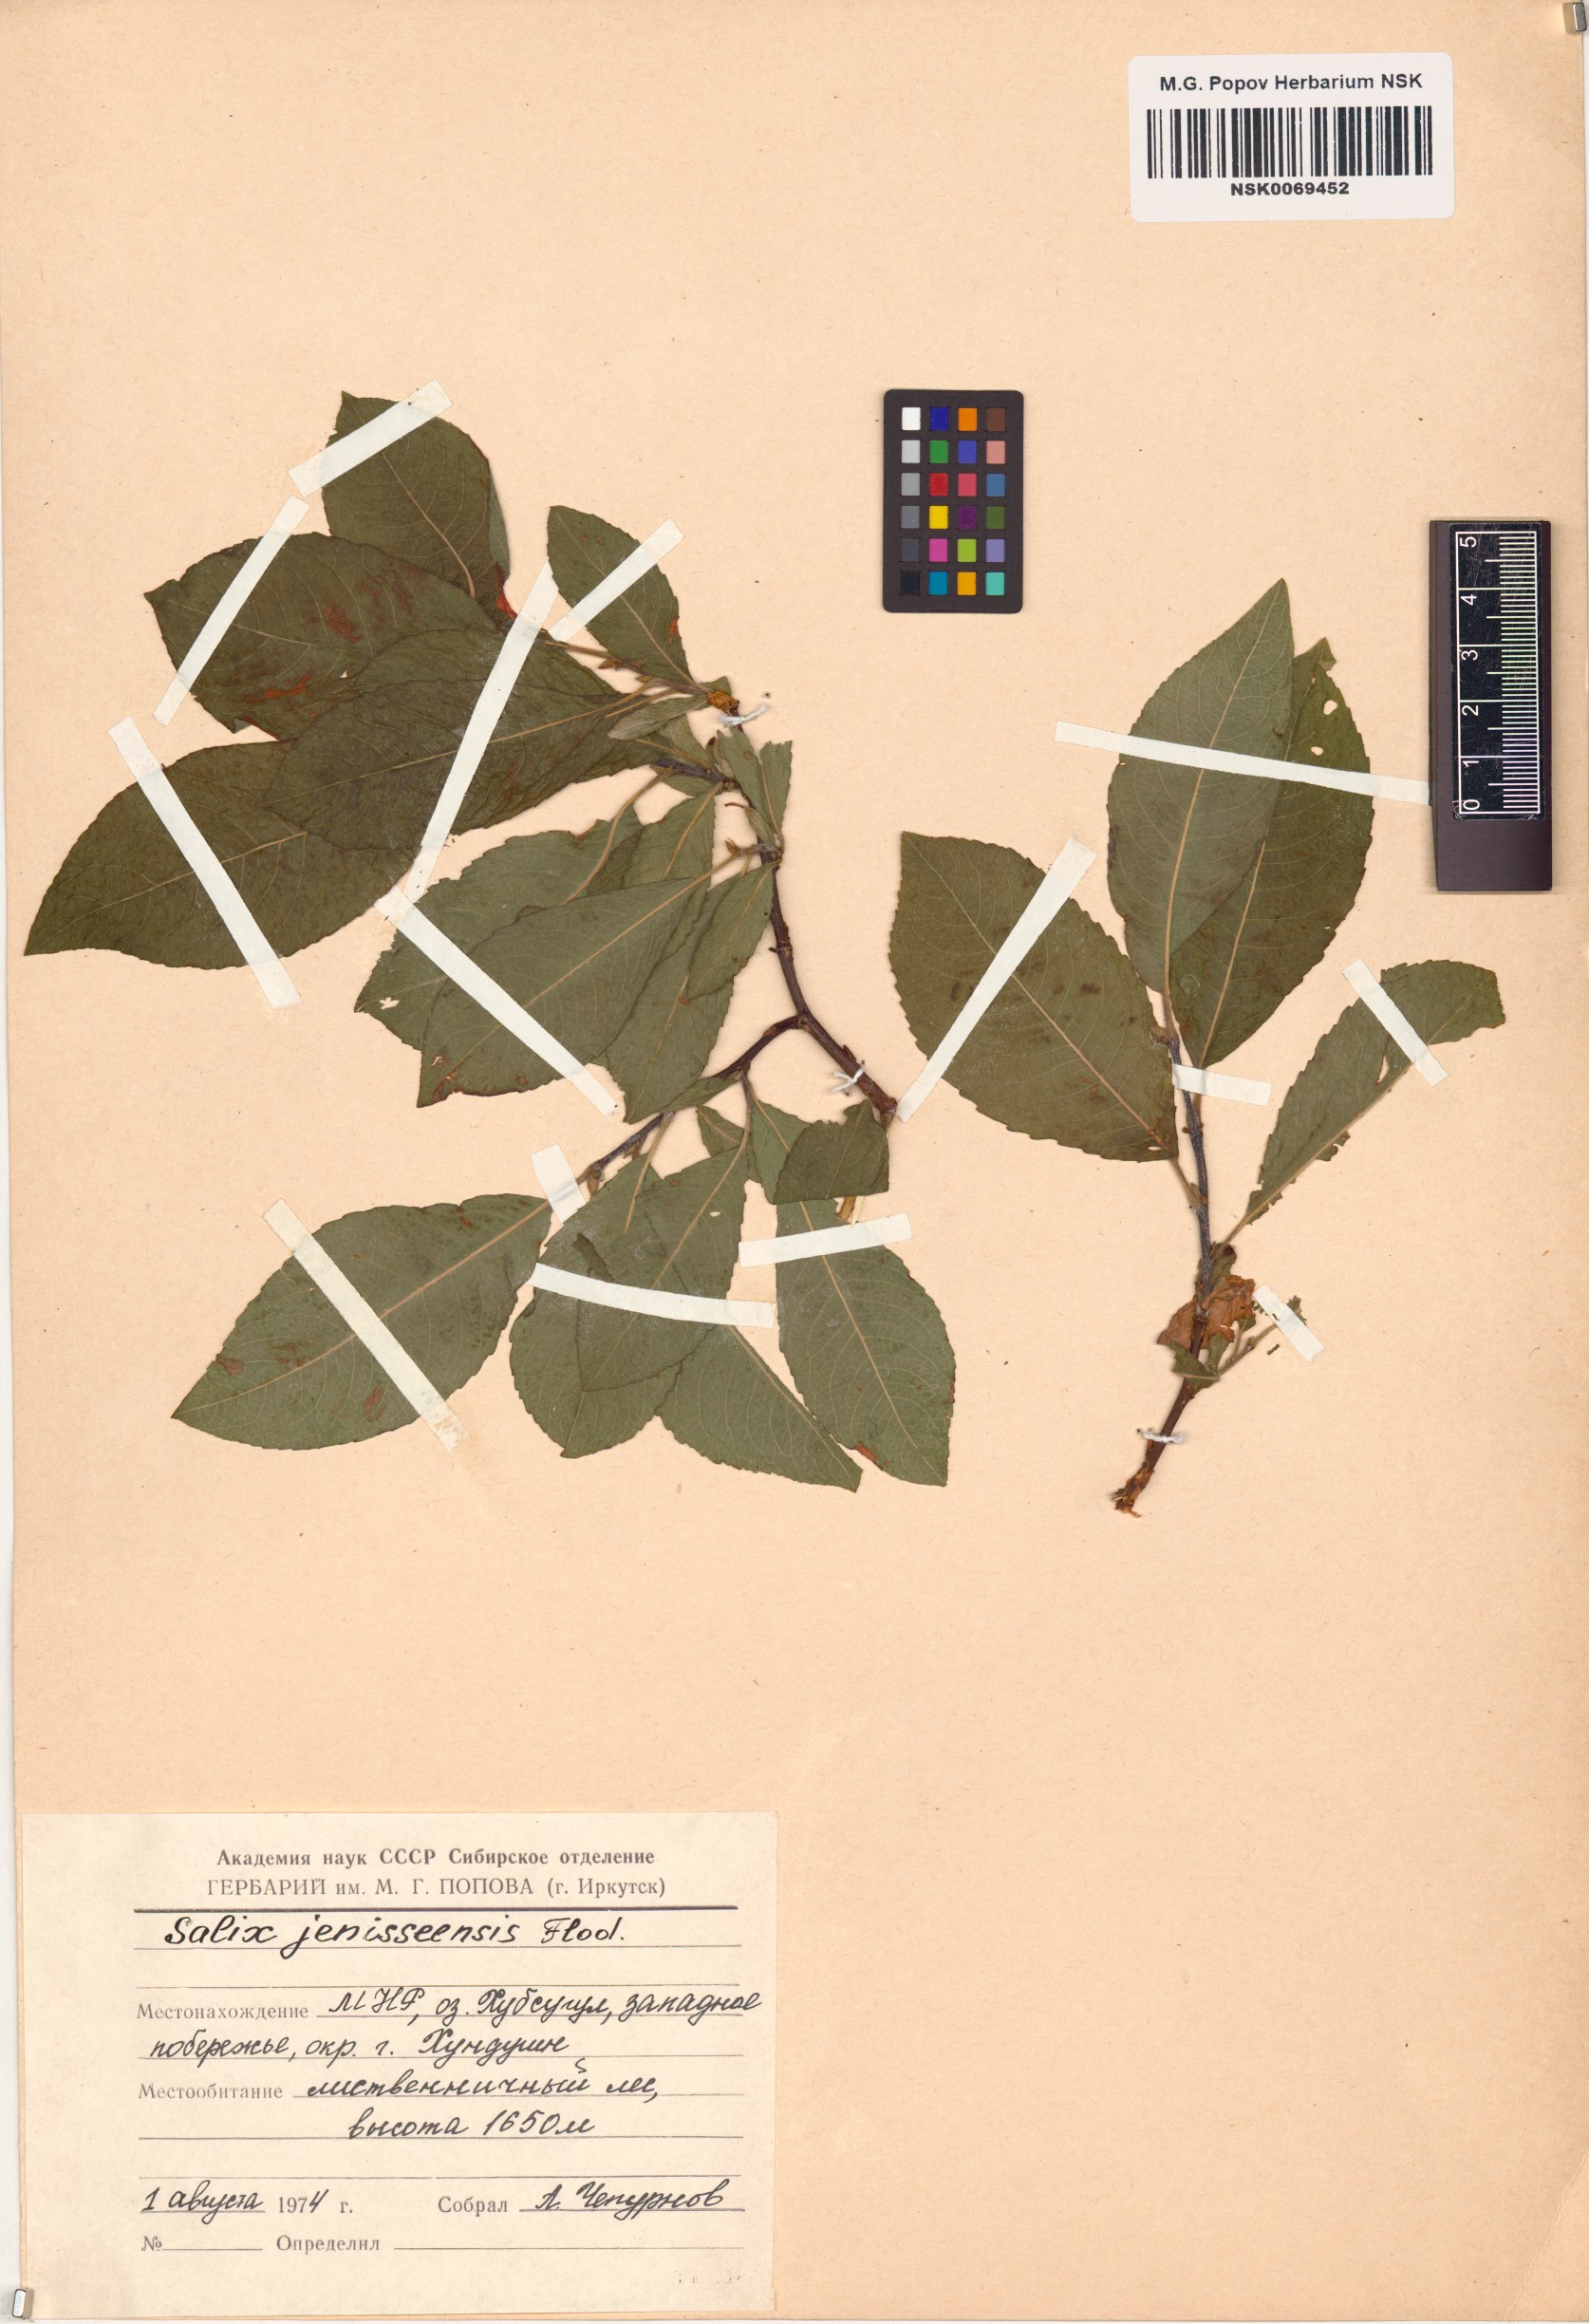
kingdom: Plantae
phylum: Tracheophyta
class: Magnoliopsida
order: Malpighiales
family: Salicaceae
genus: Salix
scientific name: Salix jenisseensis
